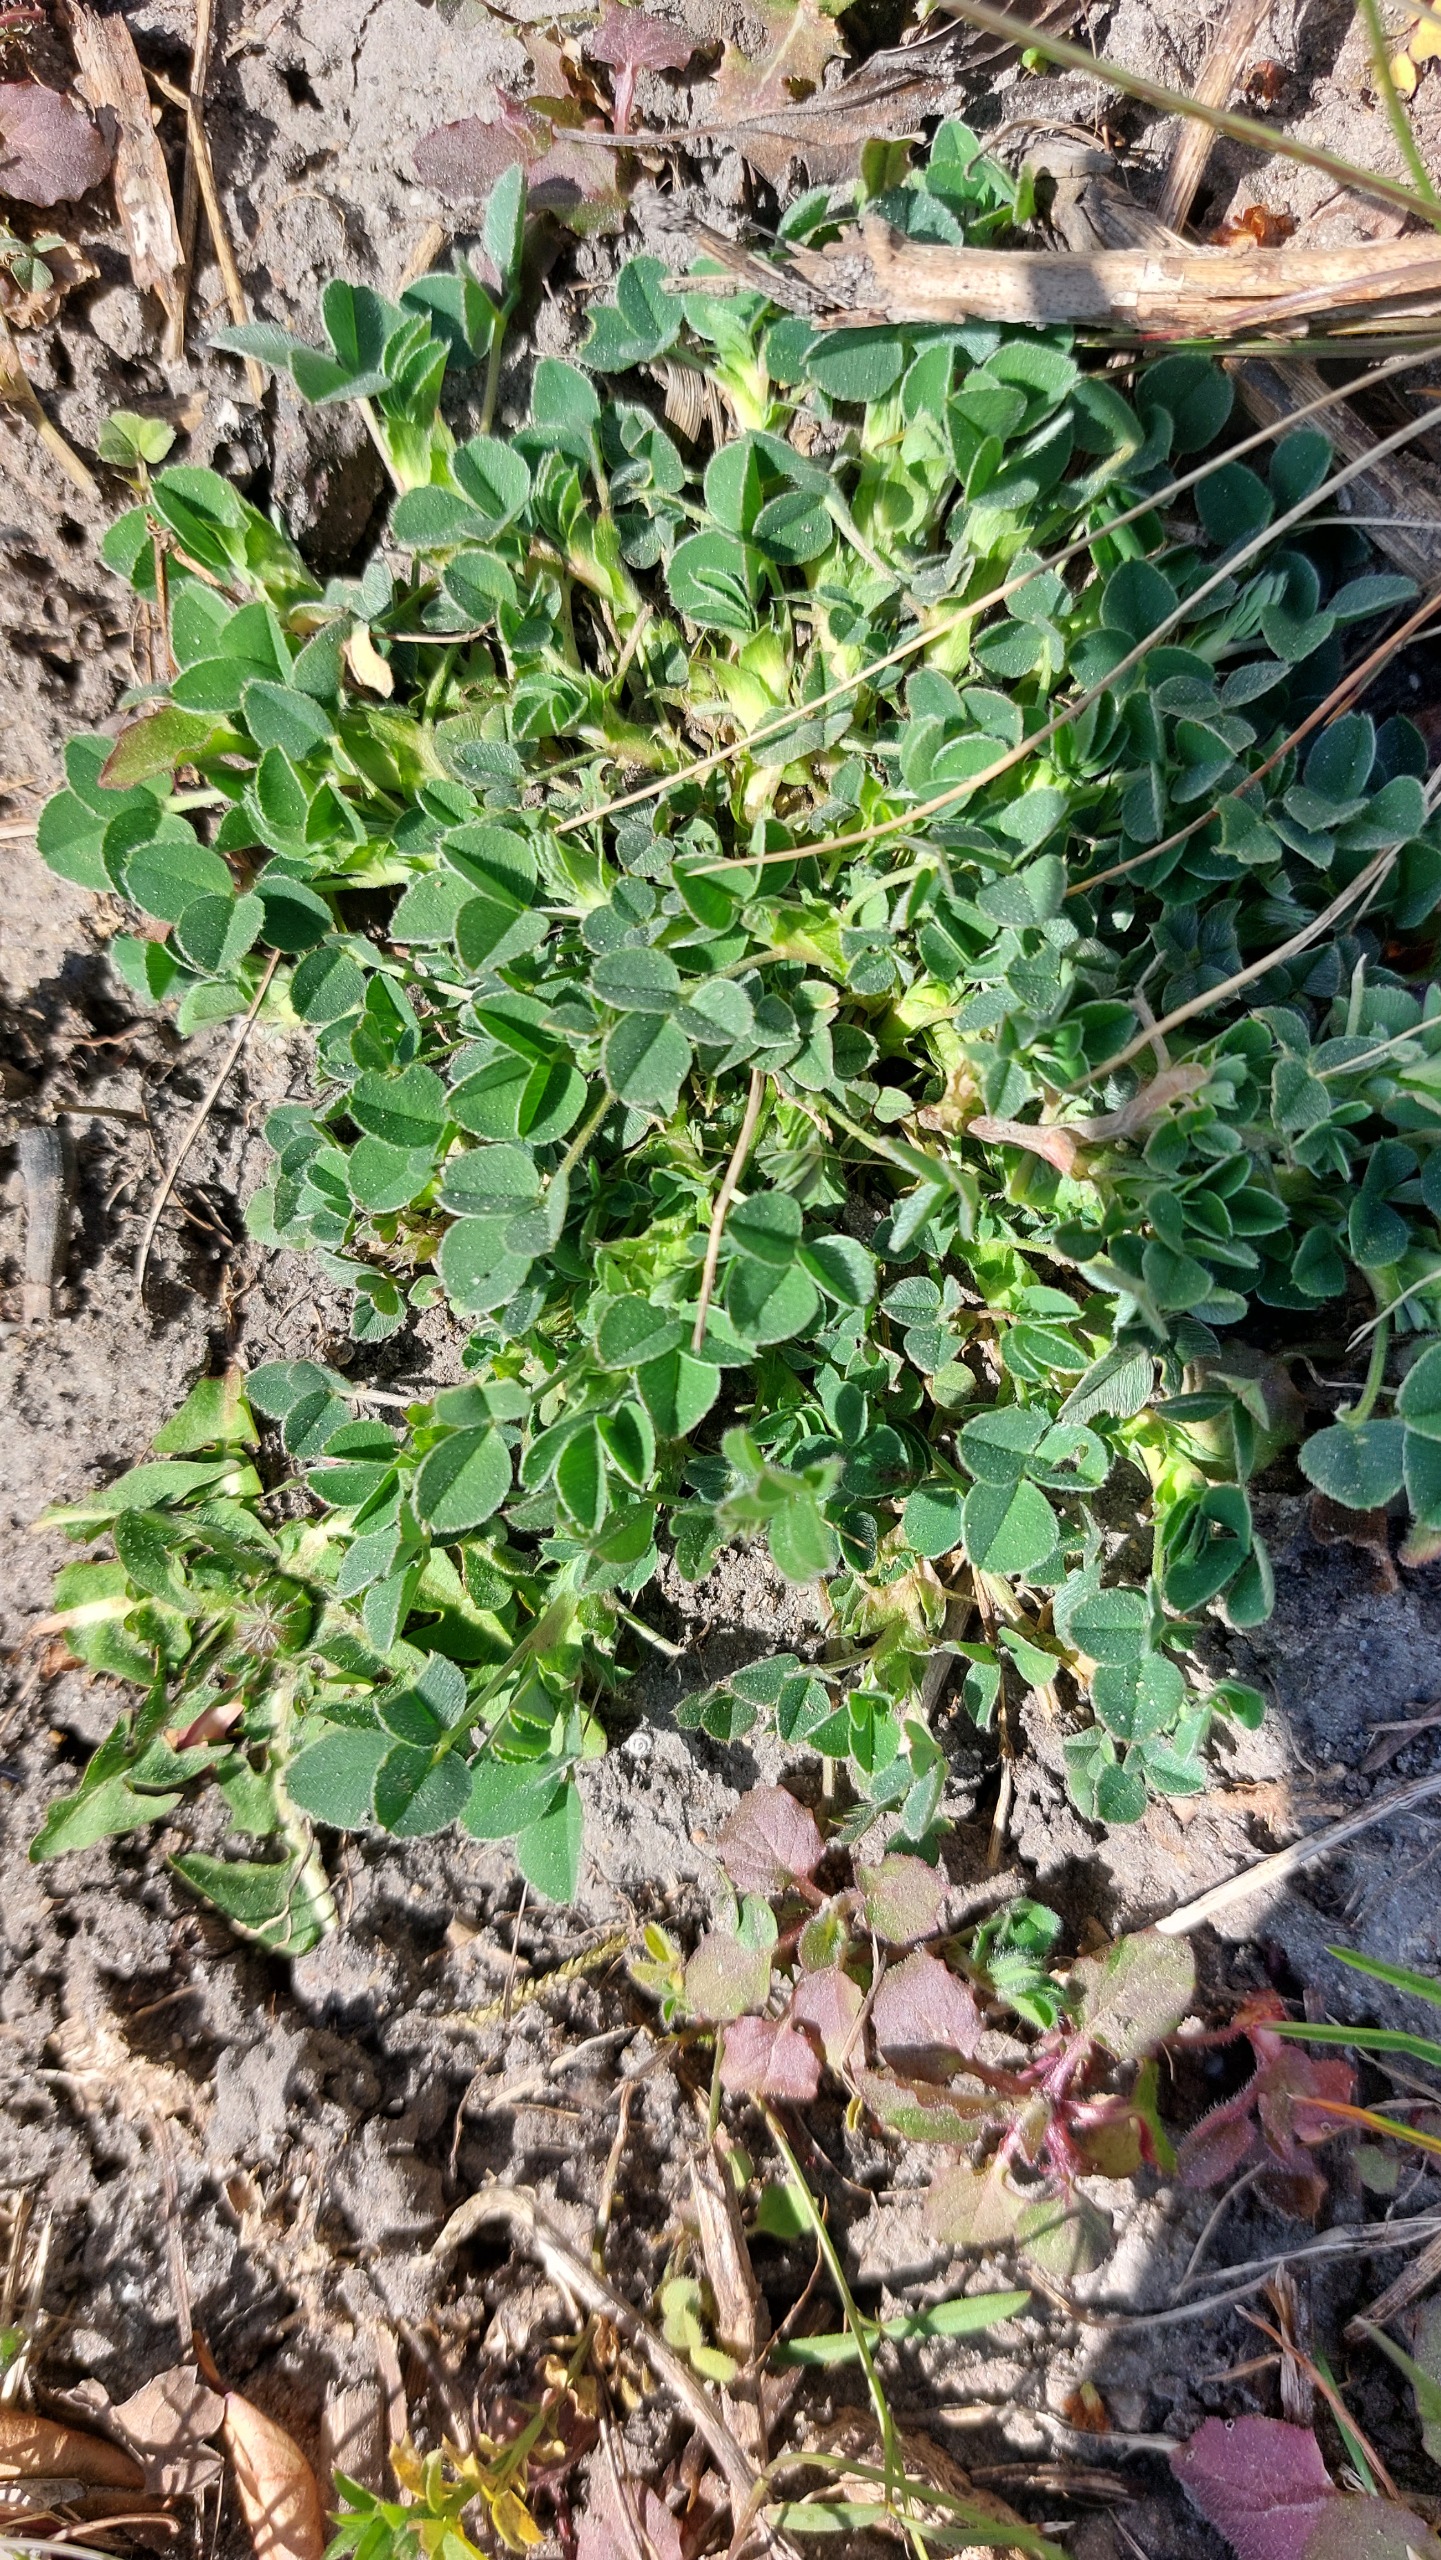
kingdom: Plantae
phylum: Tracheophyta
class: Magnoliopsida
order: Fabales
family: Fabaceae
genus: Medicago
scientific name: Medicago lupulina
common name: Humle-sneglebælg
